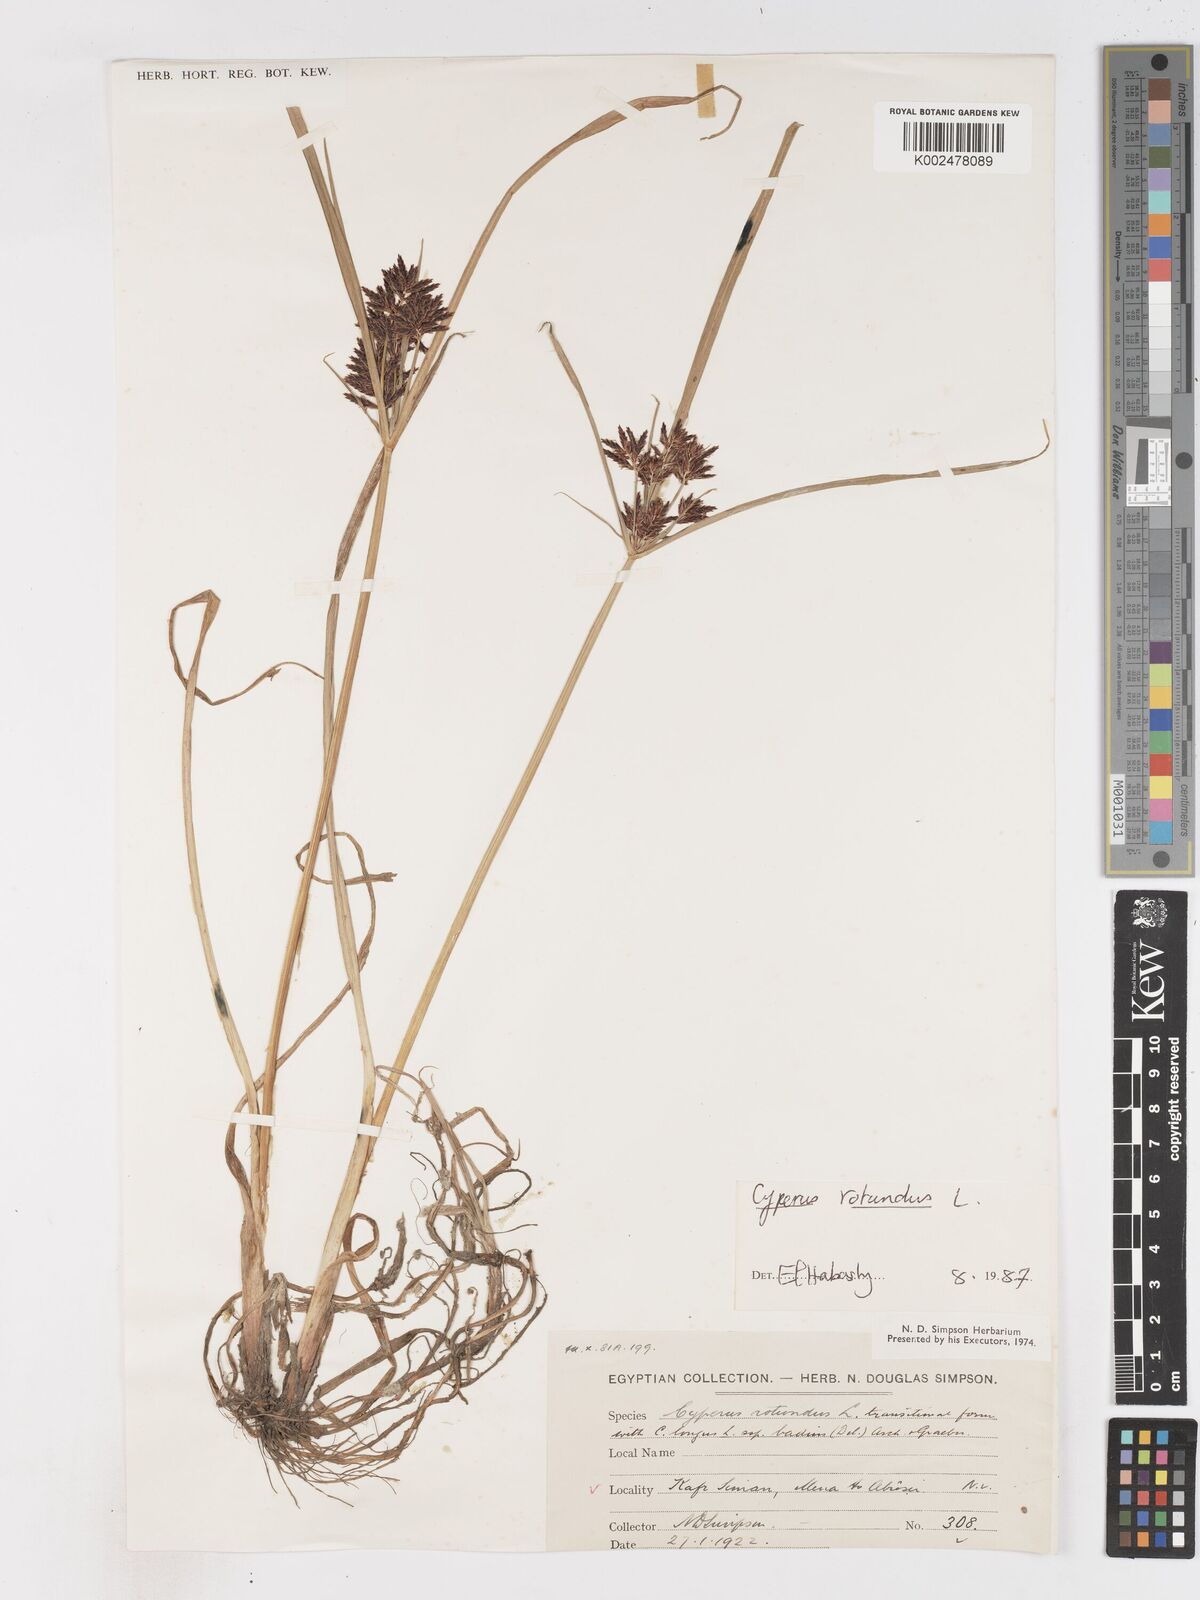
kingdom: Plantae
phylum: Tracheophyta
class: Liliopsida
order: Poales
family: Cyperaceae
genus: Cyperus
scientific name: Cyperus rotundus
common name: Nutgrass
